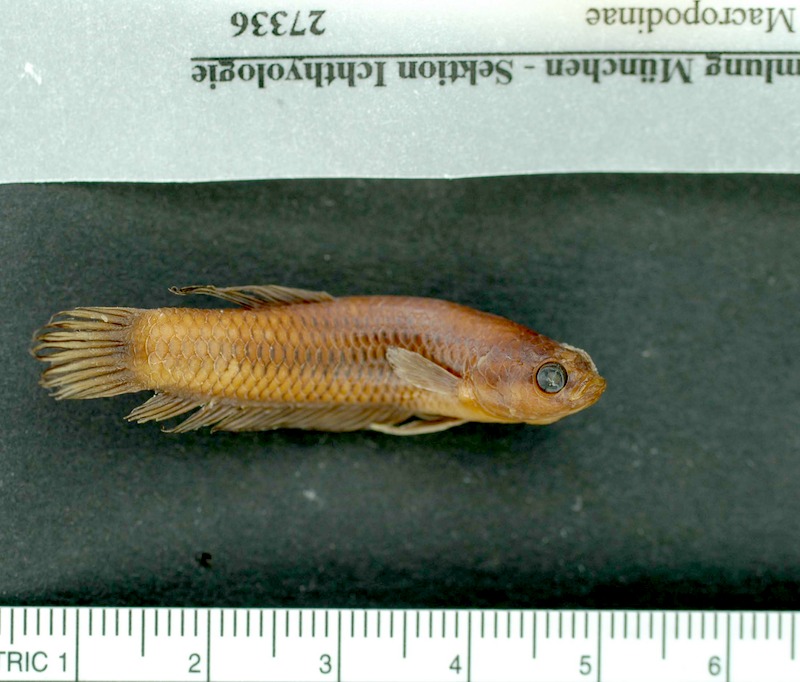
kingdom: Animalia
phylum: Chordata
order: Perciformes
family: Osphronemidae
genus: Betta
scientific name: Betta tussyae
